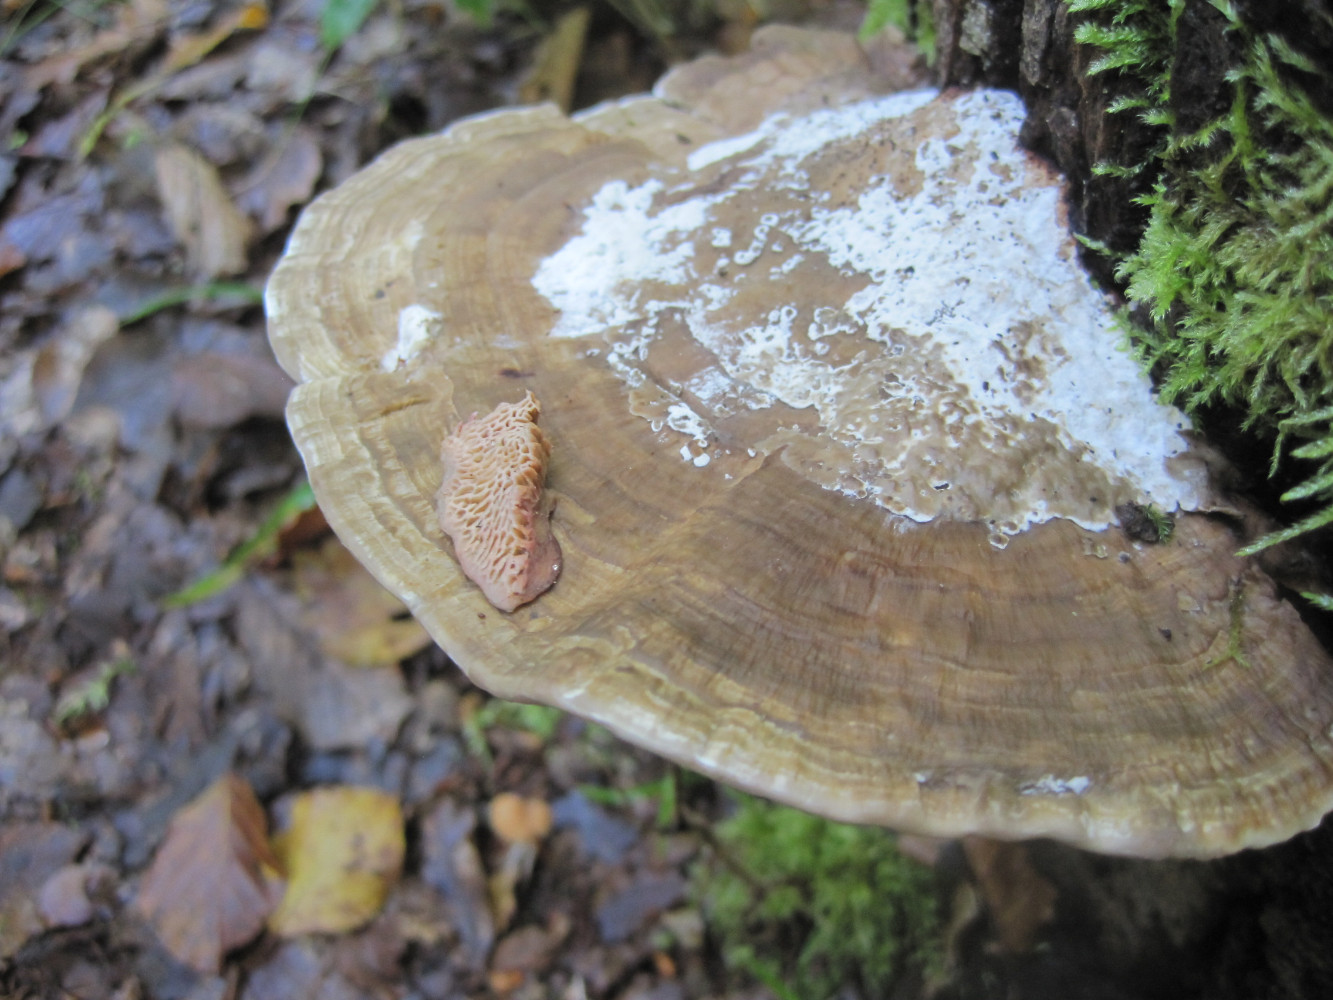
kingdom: Fungi
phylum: Basidiomycota
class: Agaricomycetes
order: Polyporales
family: Polyporaceae
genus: Daedaleopsis
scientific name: Daedaleopsis confragosa
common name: rødmende læderporesvamp
